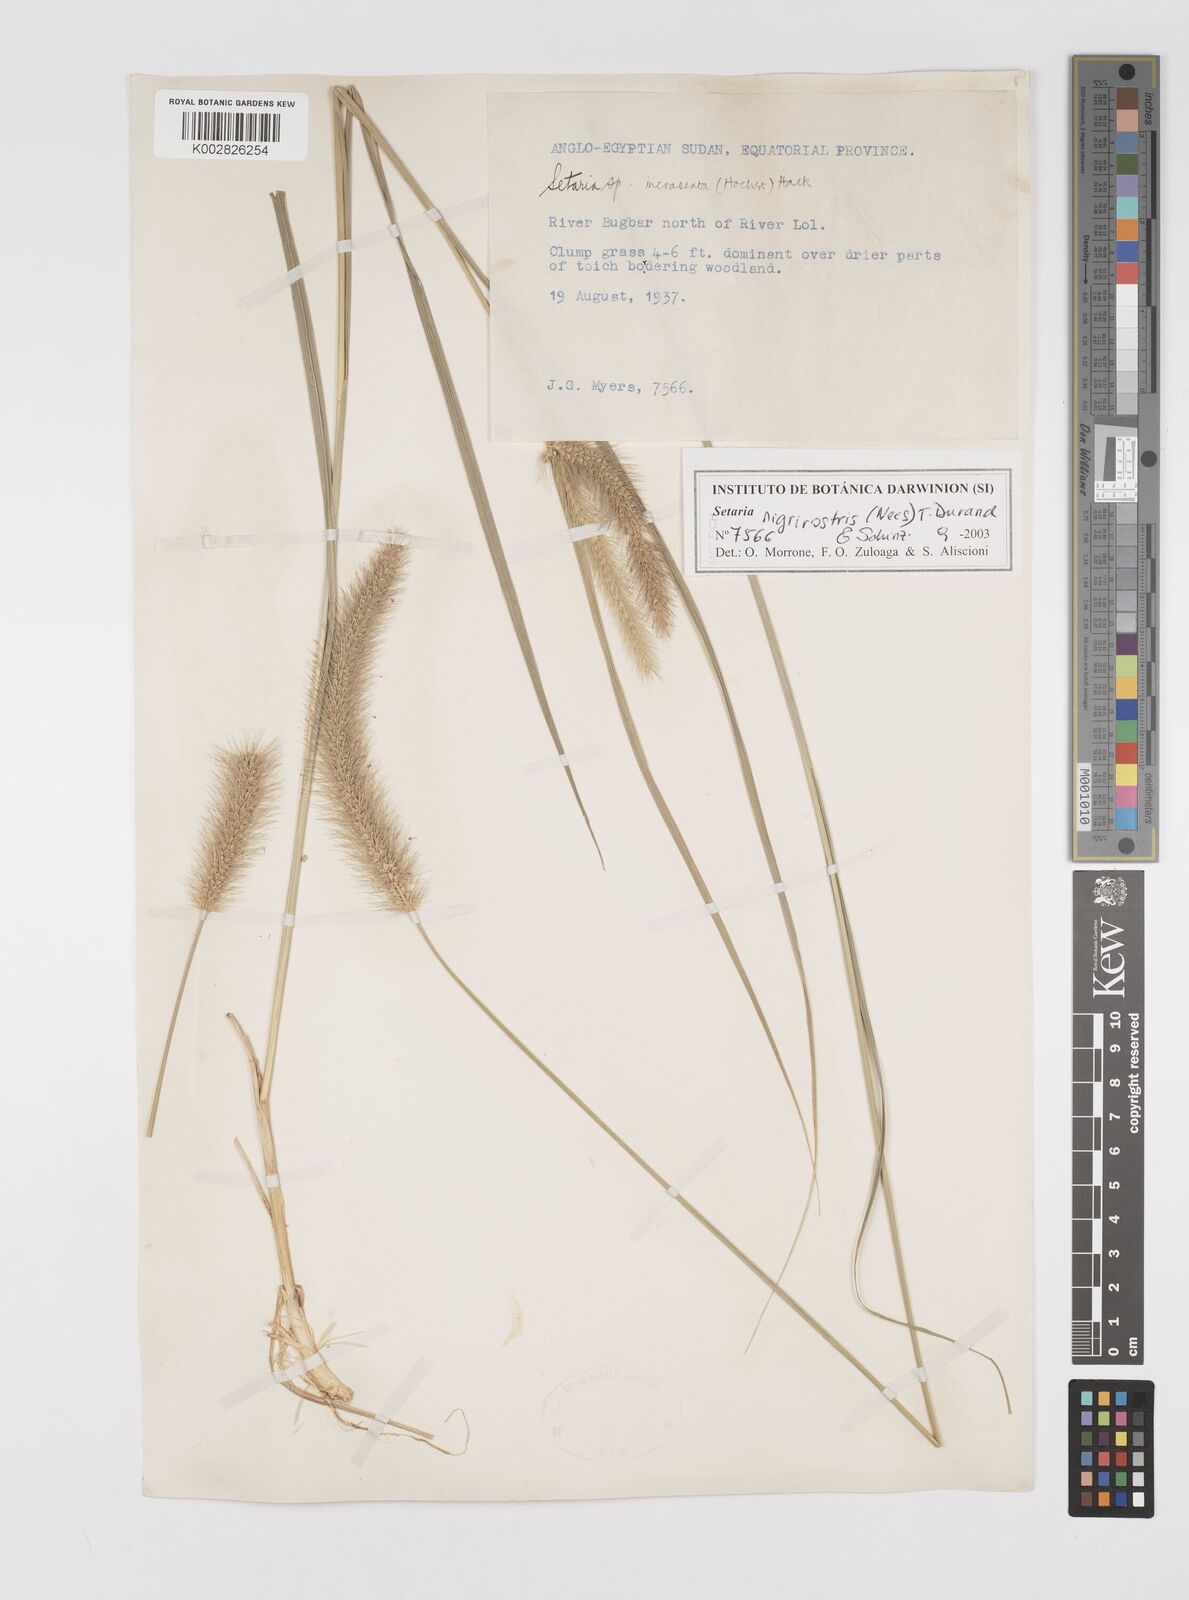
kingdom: Plantae
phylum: Tracheophyta
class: Liliopsida
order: Poales
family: Poaceae
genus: Setaria
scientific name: Setaria nigrirostris
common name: Black bristlegrass
